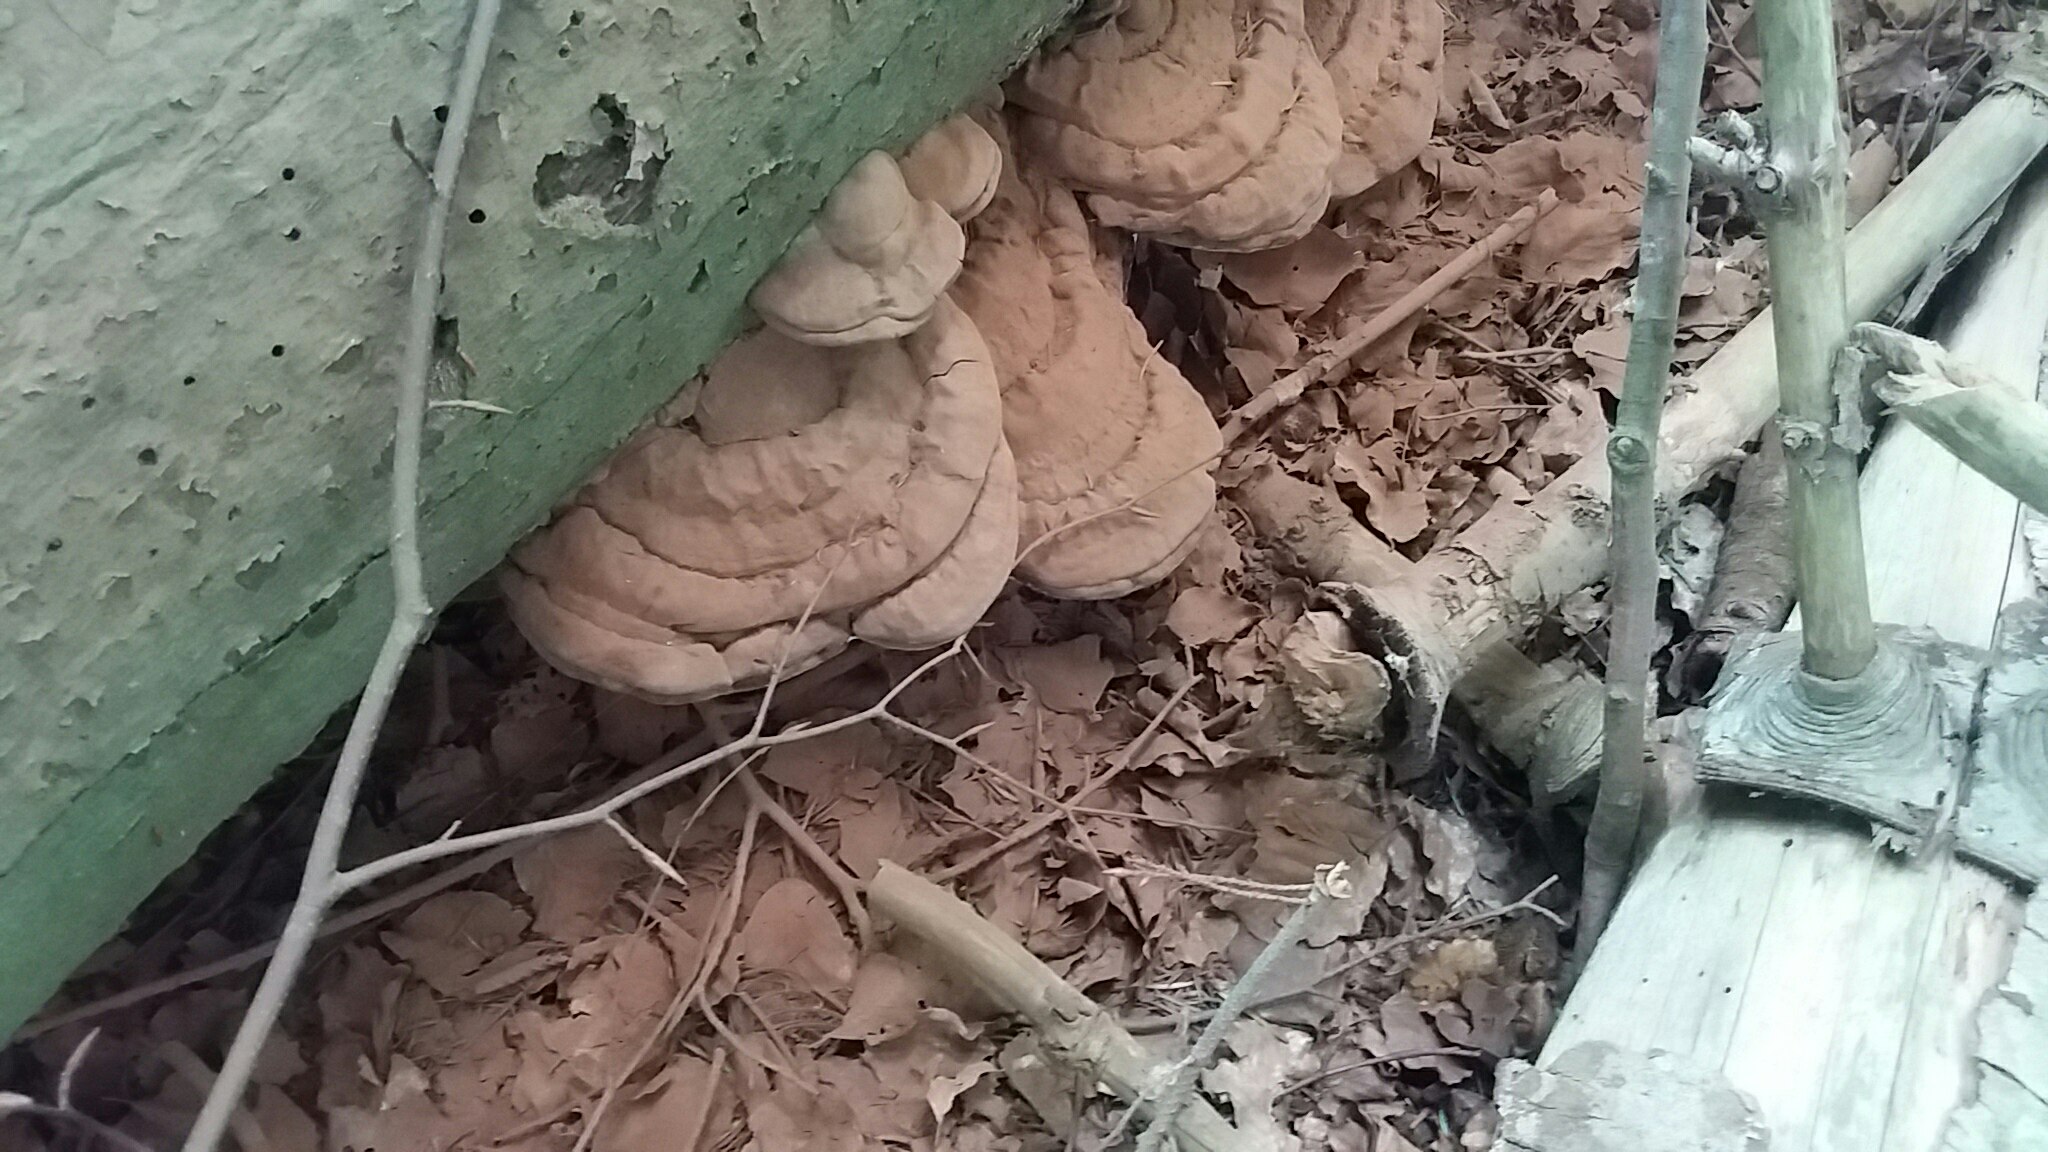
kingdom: Fungi
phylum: Basidiomycota
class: Agaricomycetes
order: Polyporales
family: Polyporaceae
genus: Ganoderma
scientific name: Ganoderma applanatum
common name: flad lakporesvamp
